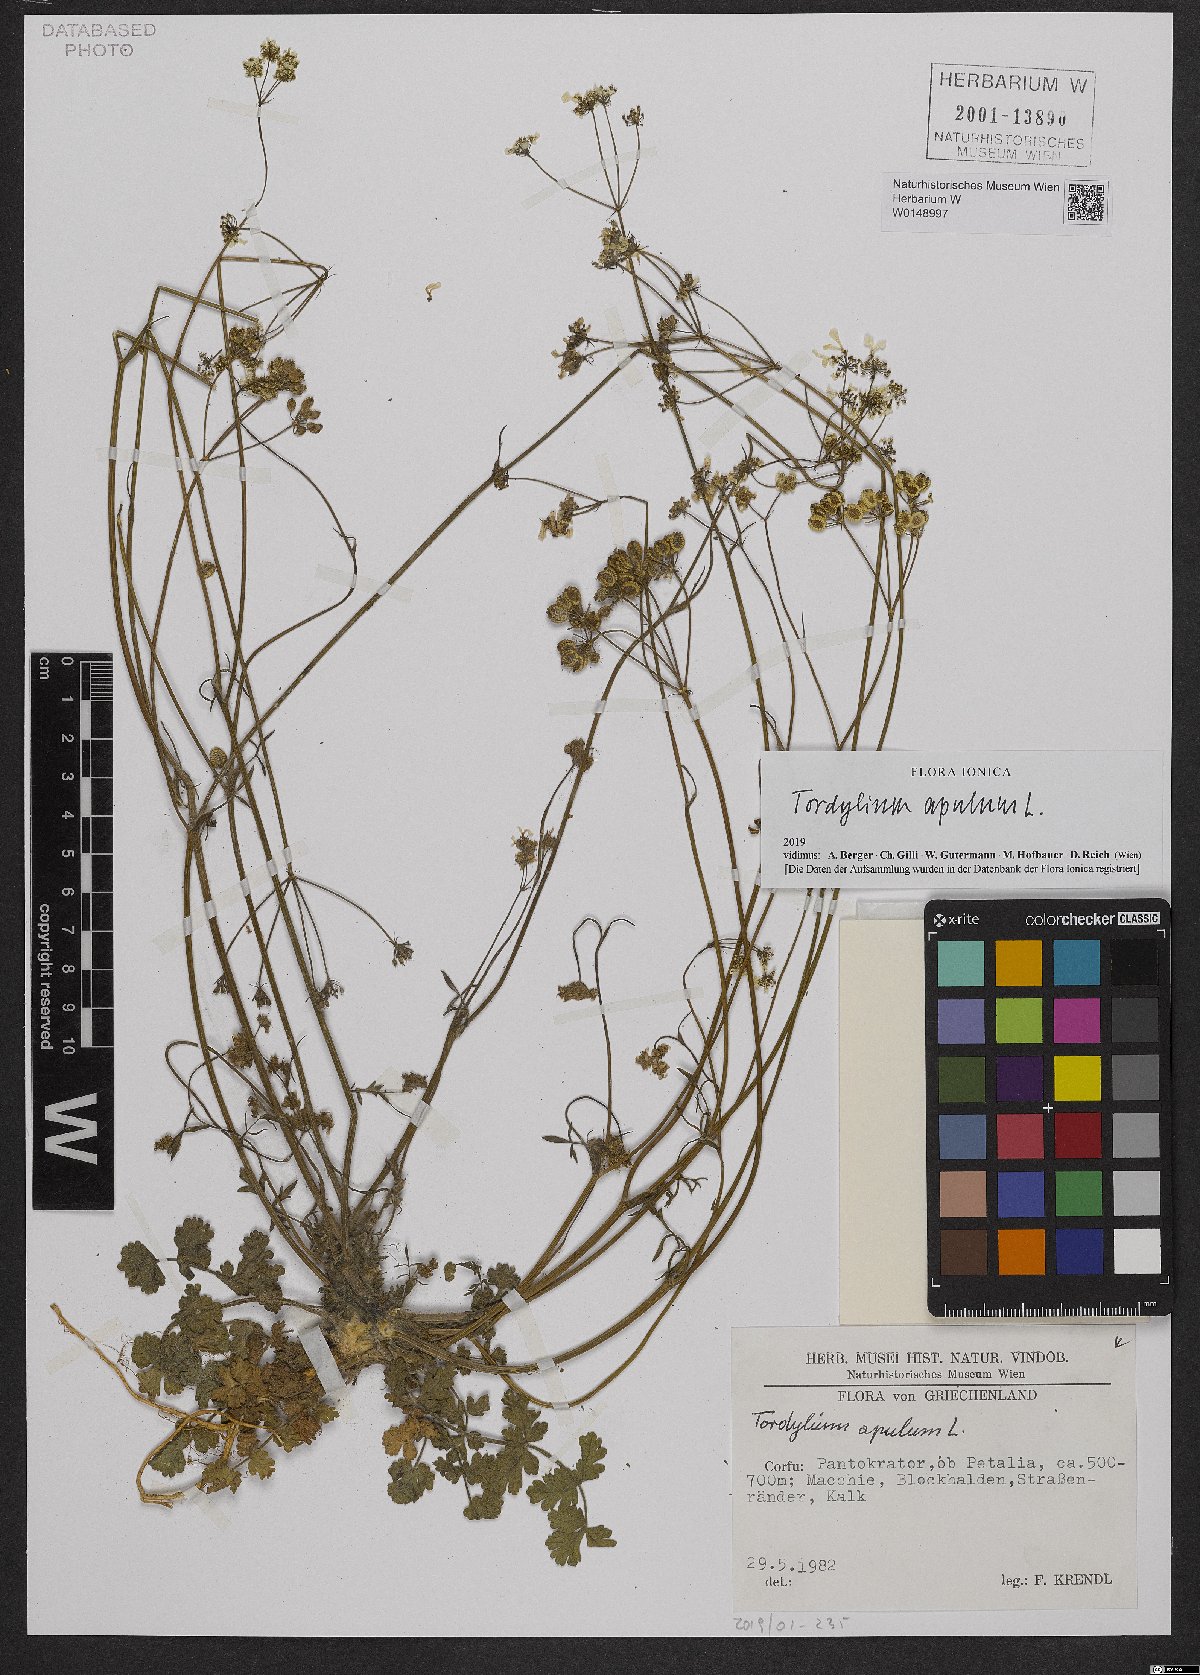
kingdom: Plantae
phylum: Tracheophyta
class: Magnoliopsida
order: Apiales
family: Apiaceae
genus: Tordylium
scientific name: Tordylium apulum
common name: Mediterranean hartwort
